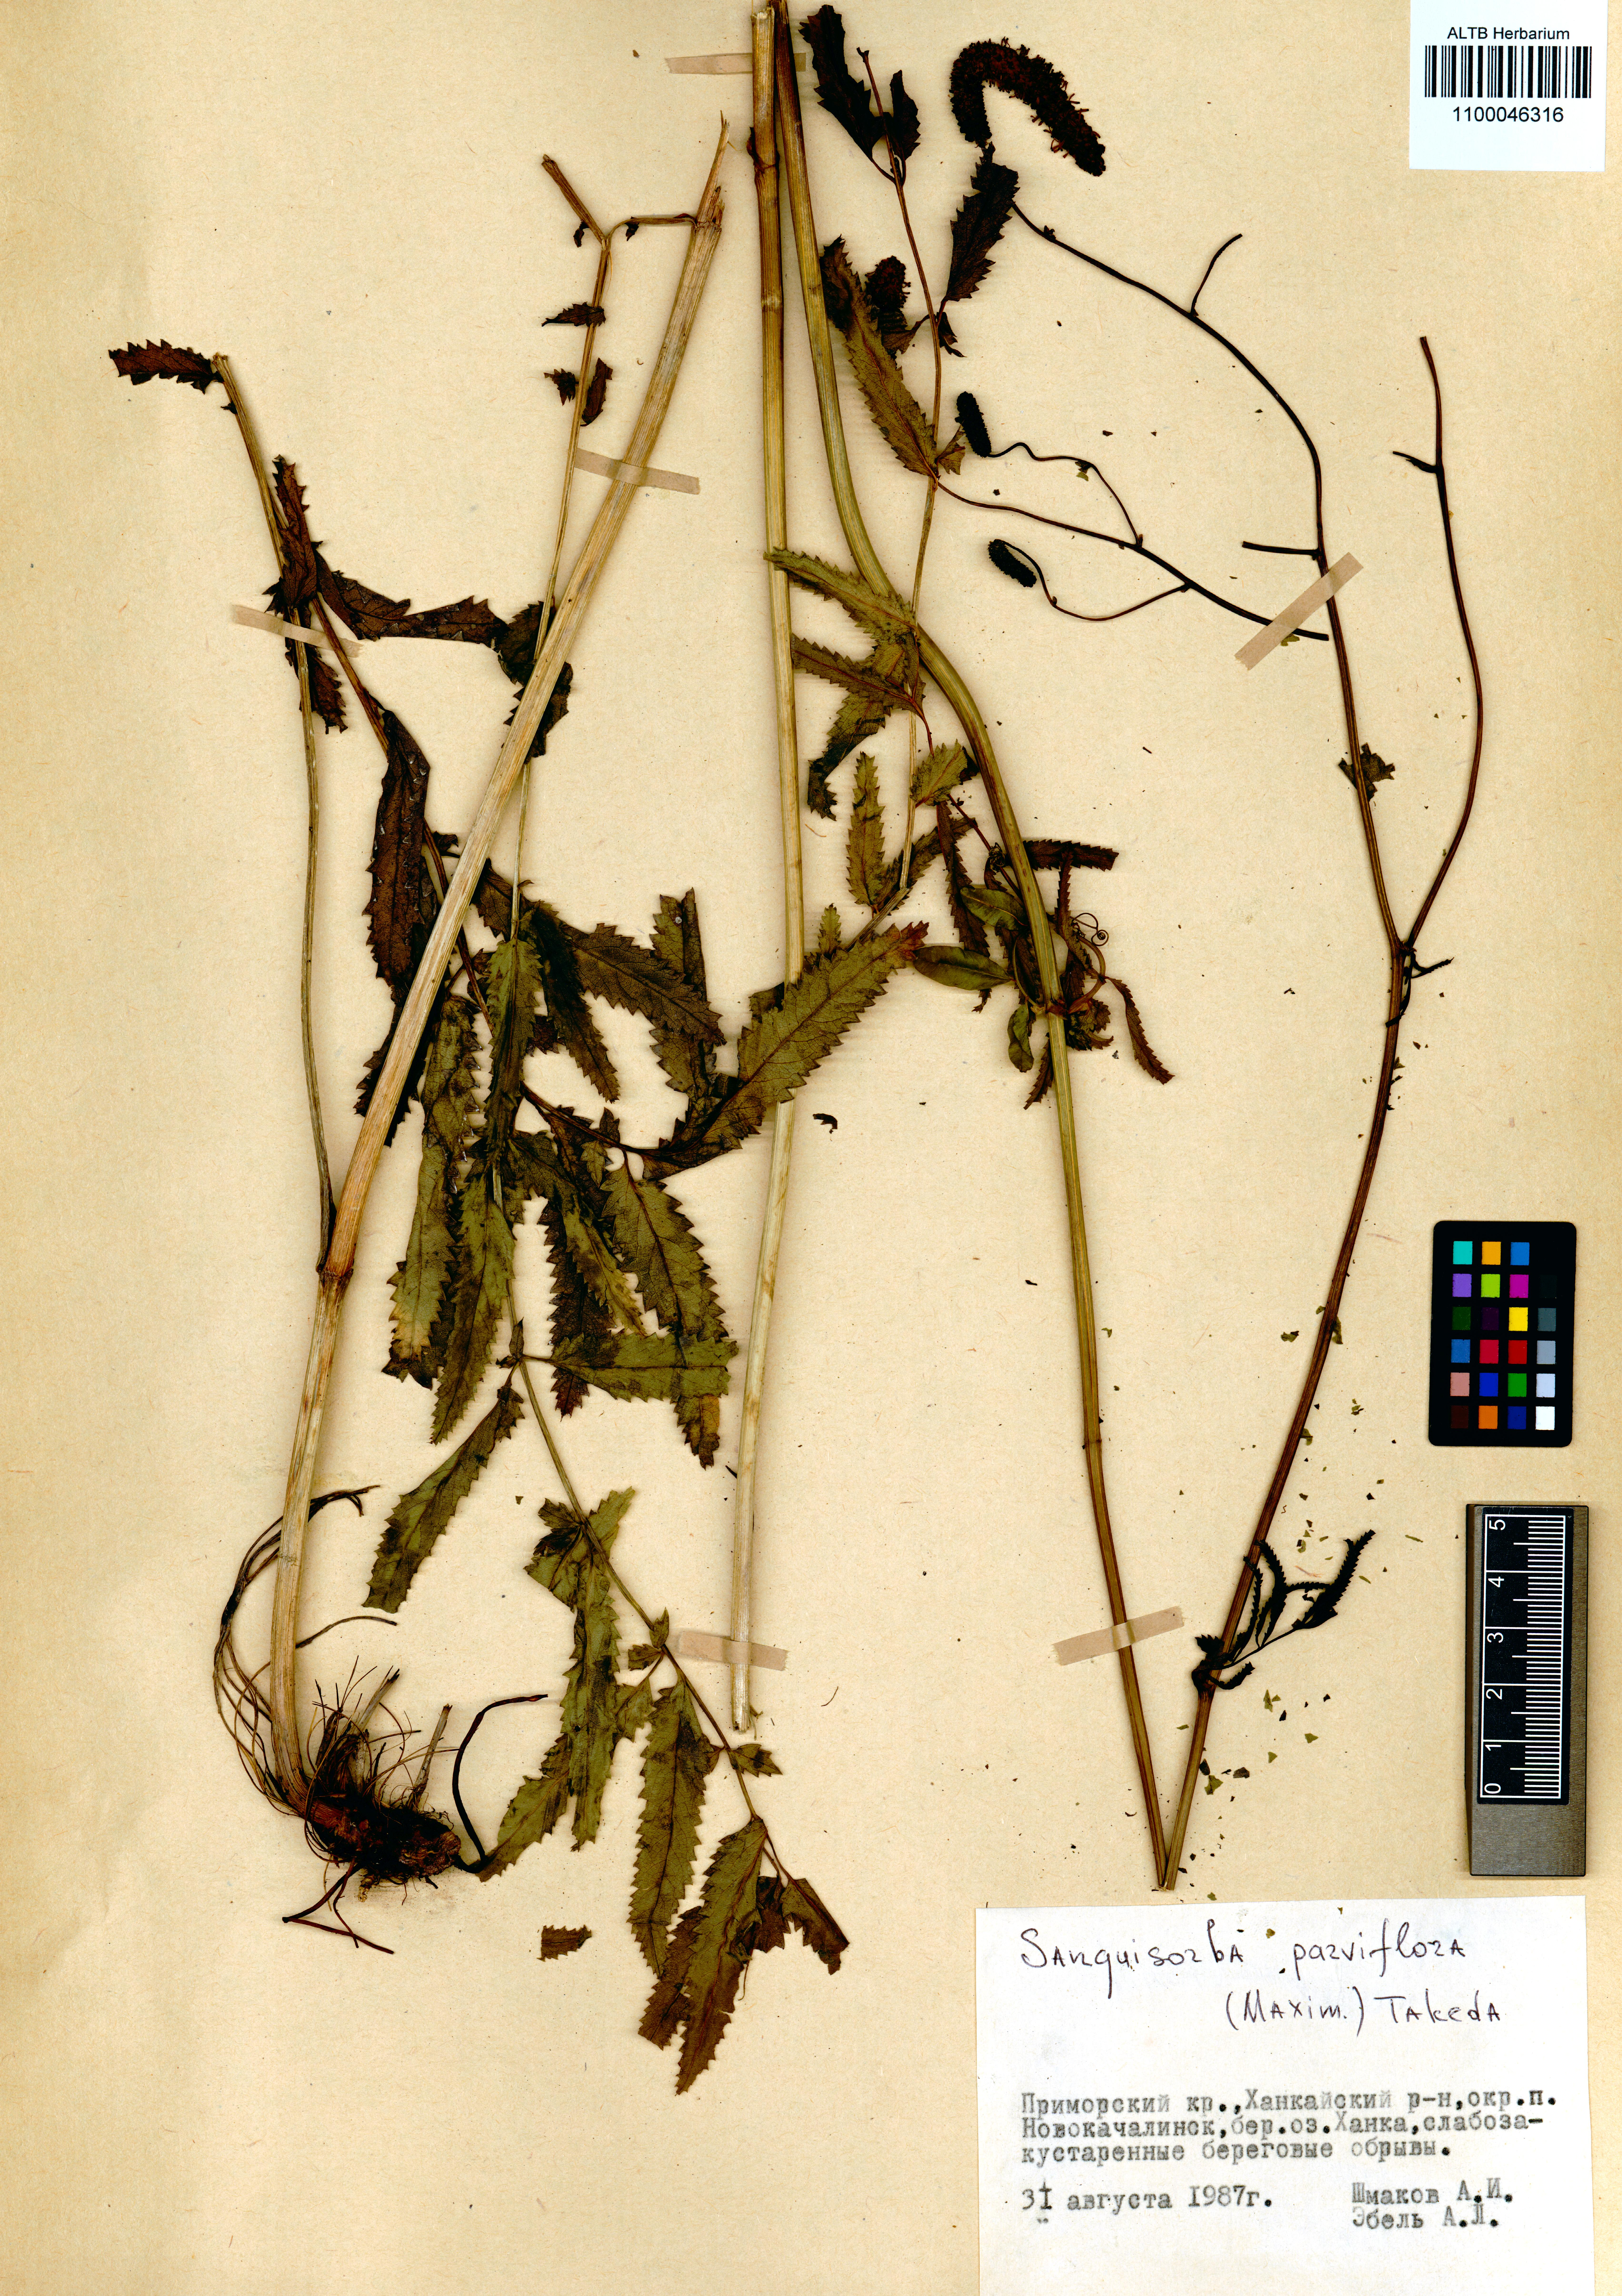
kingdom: Plantae
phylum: Tracheophyta
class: Magnoliopsida
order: Rosales
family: Rosaceae
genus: Poterium
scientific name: Poterium tenuifolium
